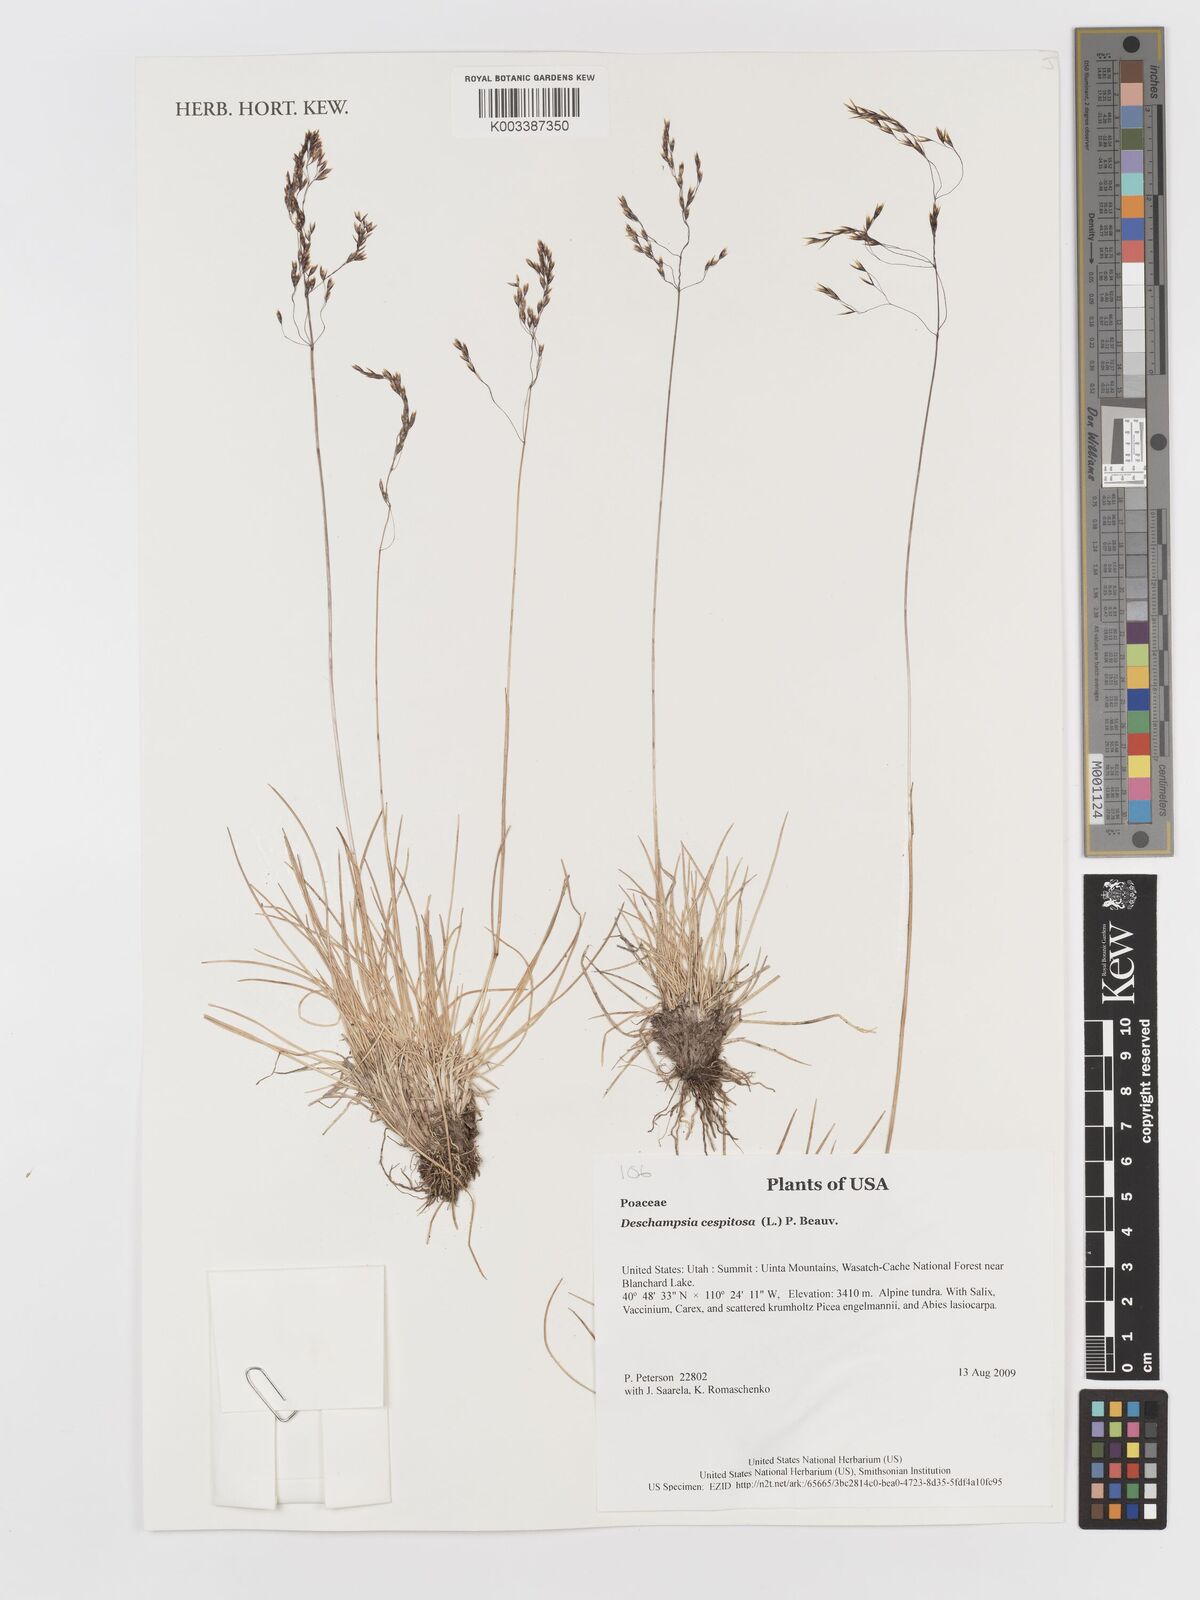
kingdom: Plantae
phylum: Tracheophyta
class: Liliopsida
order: Poales
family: Poaceae
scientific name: Poaceae
